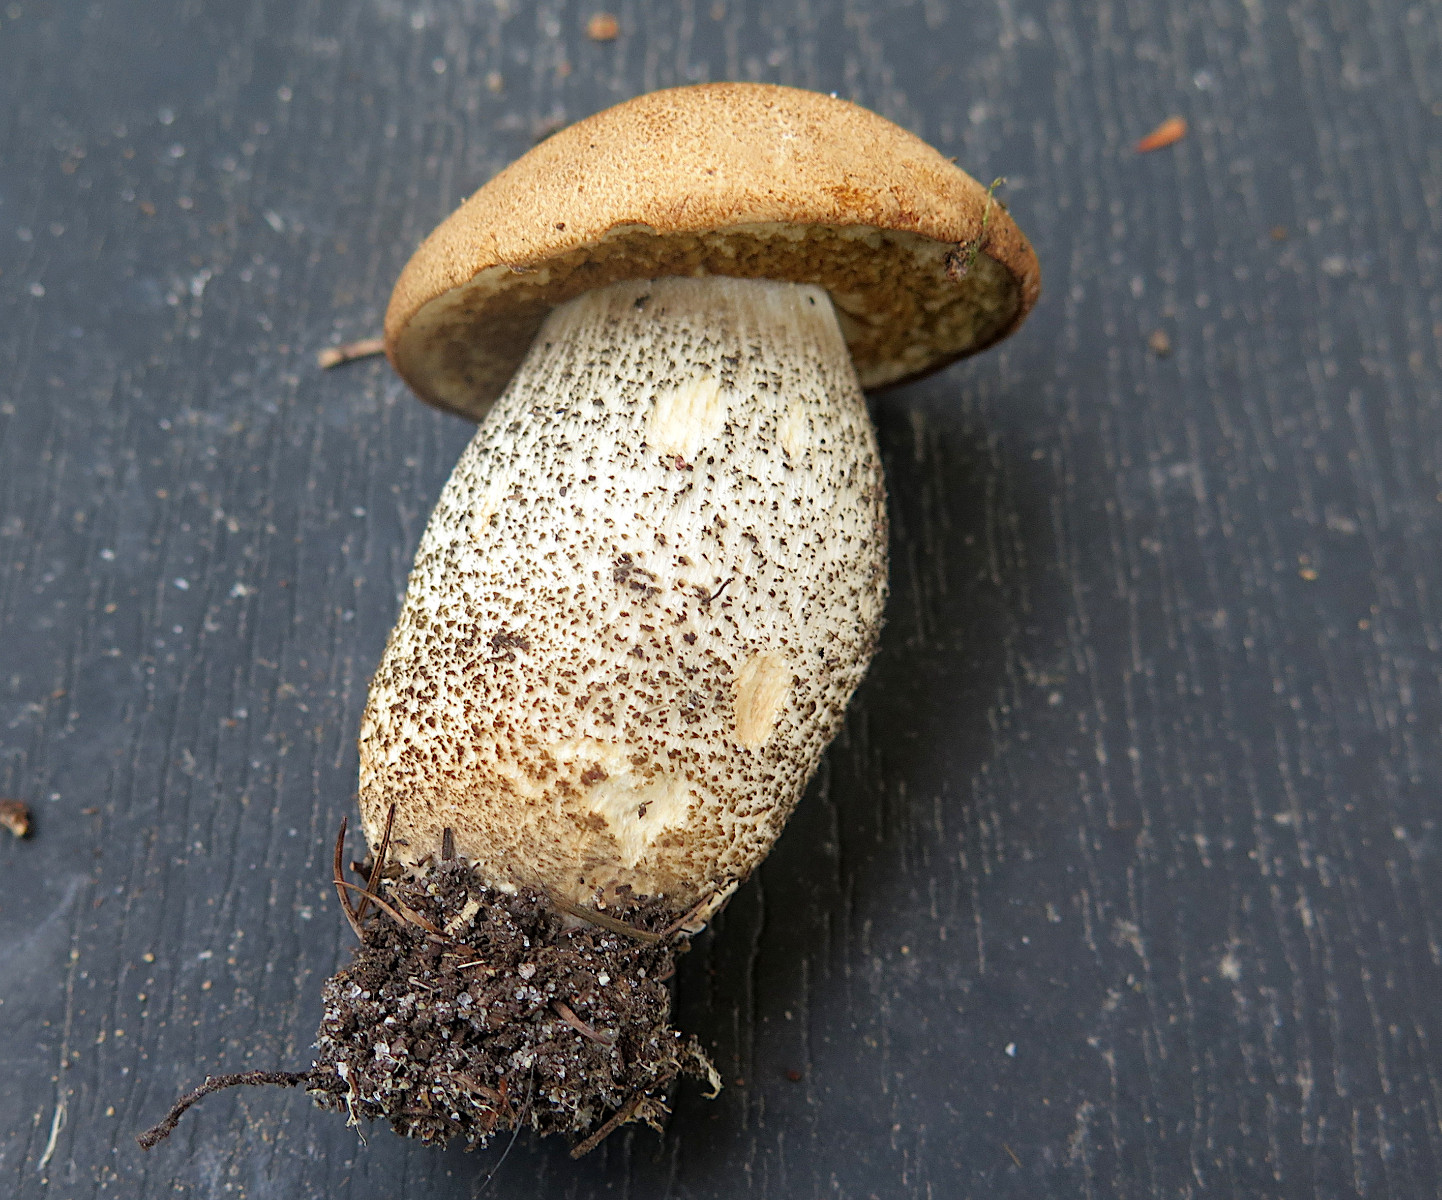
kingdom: Fungi
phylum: Basidiomycota
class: Agaricomycetes
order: Boletales
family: Boletaceae
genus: Leccinum
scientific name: Leccinum scabrum
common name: brun skælrørhat
